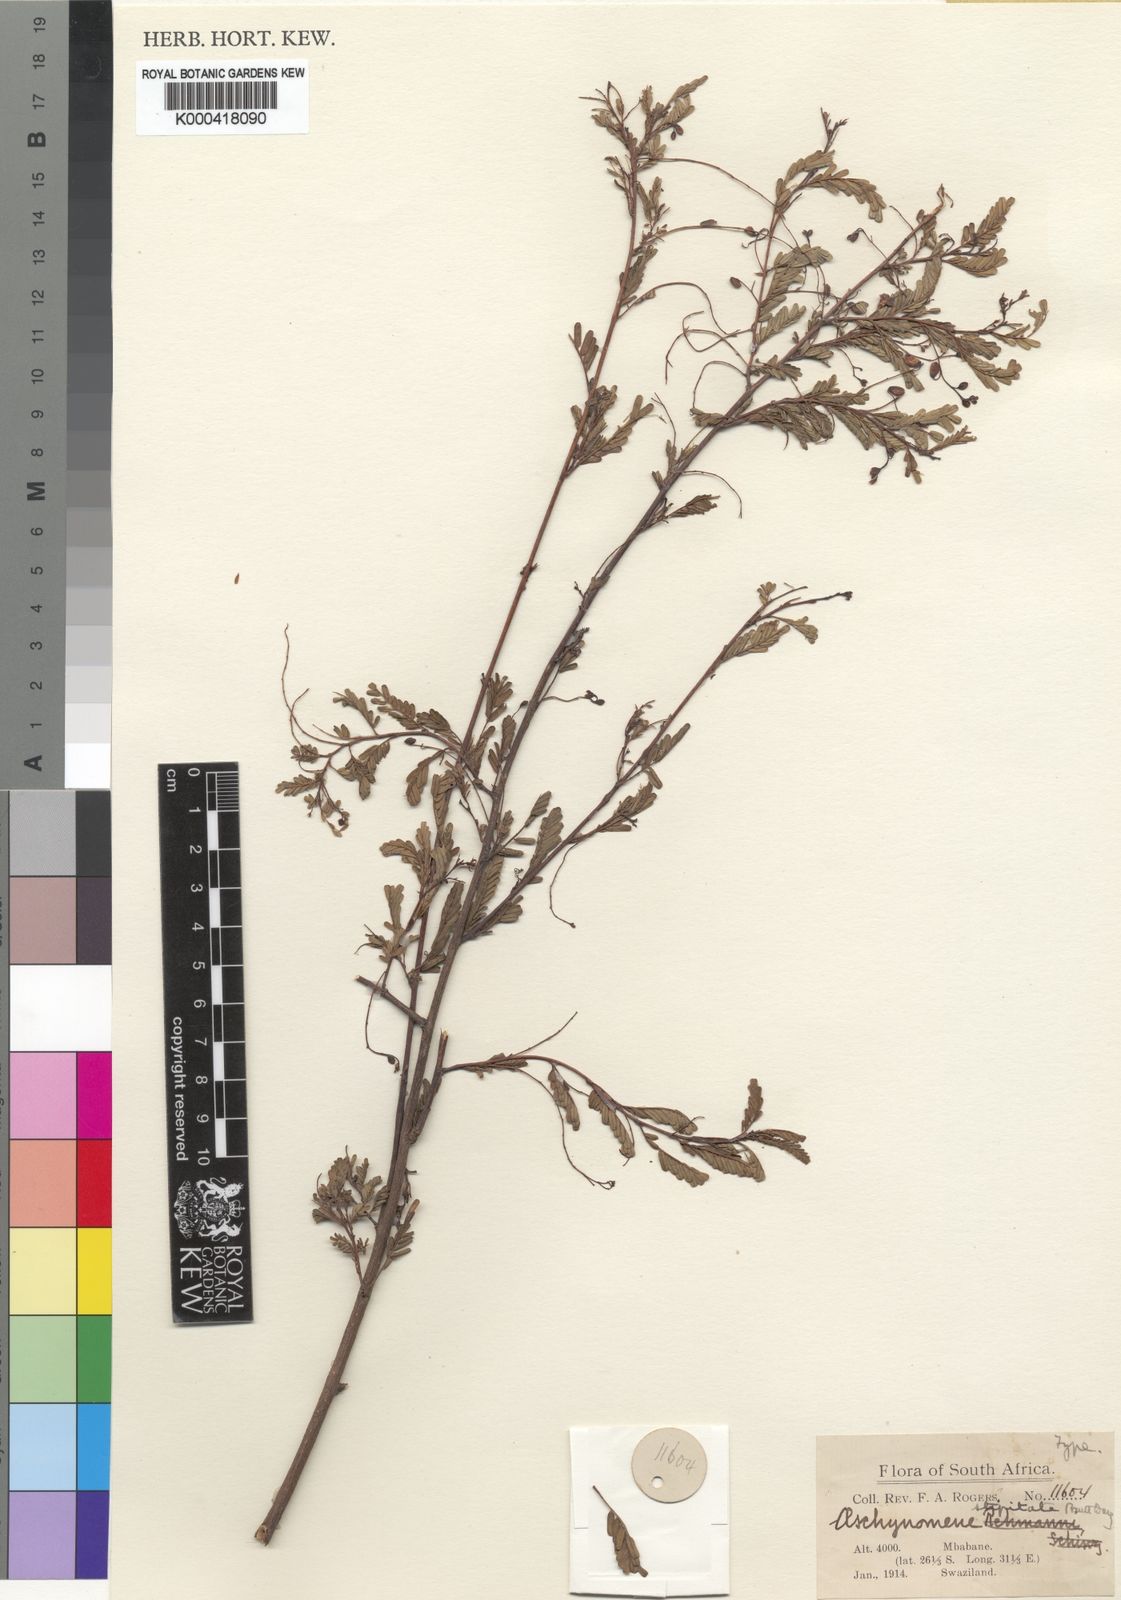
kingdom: Plantae
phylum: Tracheophyta
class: Magnoliopsida
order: Fabales
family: Fabaceae
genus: Aeschynomene
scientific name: Aeschynomene stipitata
